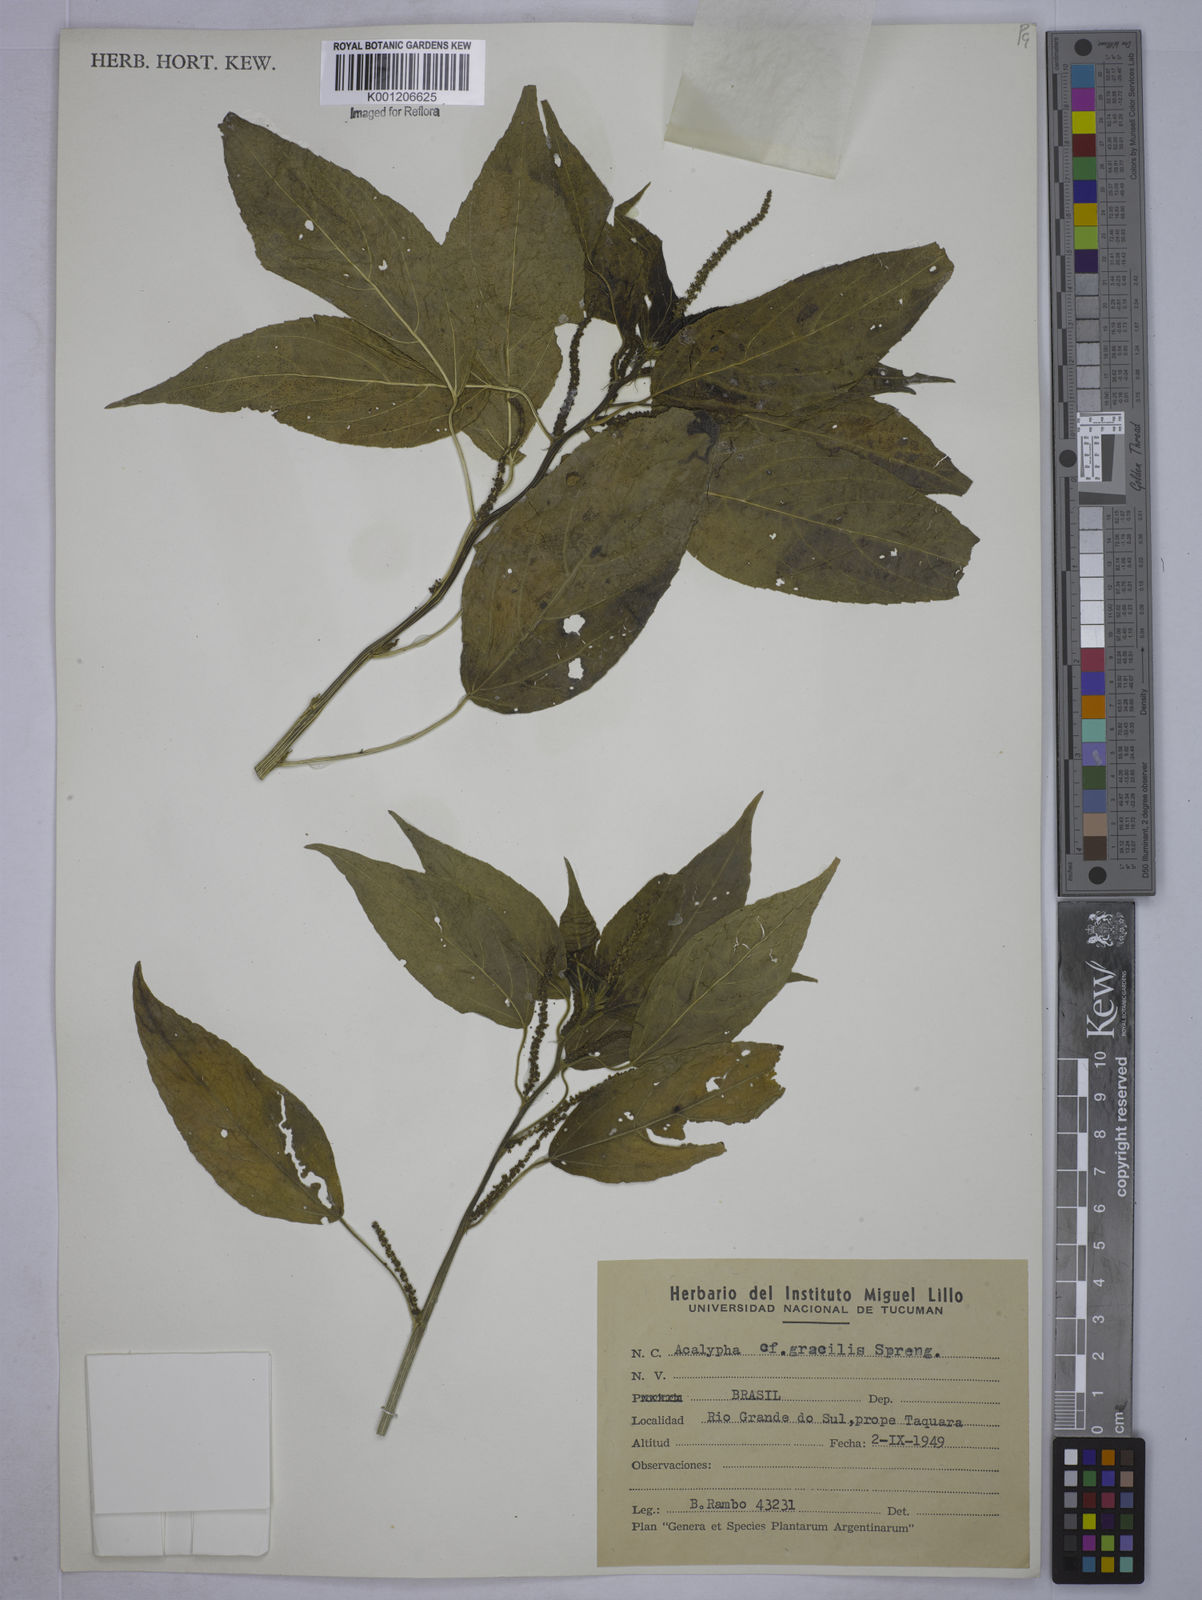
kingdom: Plantae
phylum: Tracheophyta
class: Magnoliopsida
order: Malpighiales
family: Euphorbiaceae
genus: Acalypha
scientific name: Acalypha gracilis
